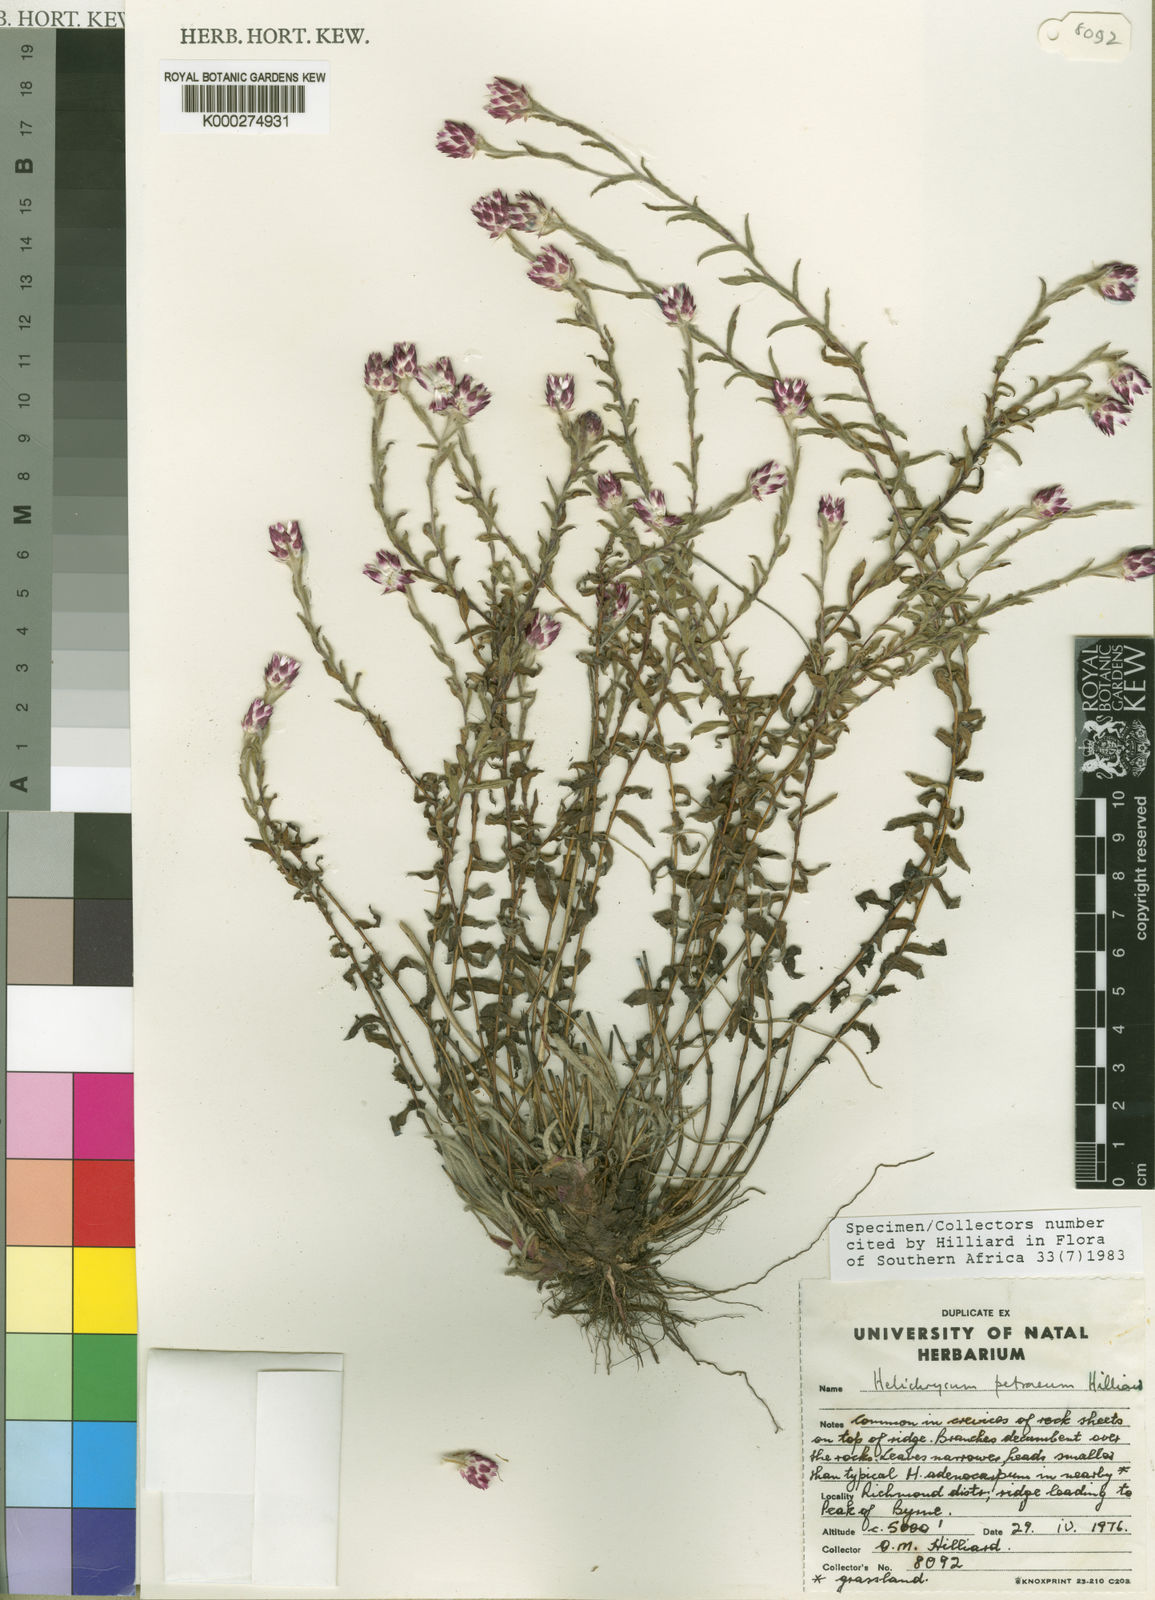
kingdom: Plantae
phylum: Tracheophyta
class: Magnoliopsida
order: Asterales
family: Asteraceae
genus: Helichrysum
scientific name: Helichrysum petraeum
